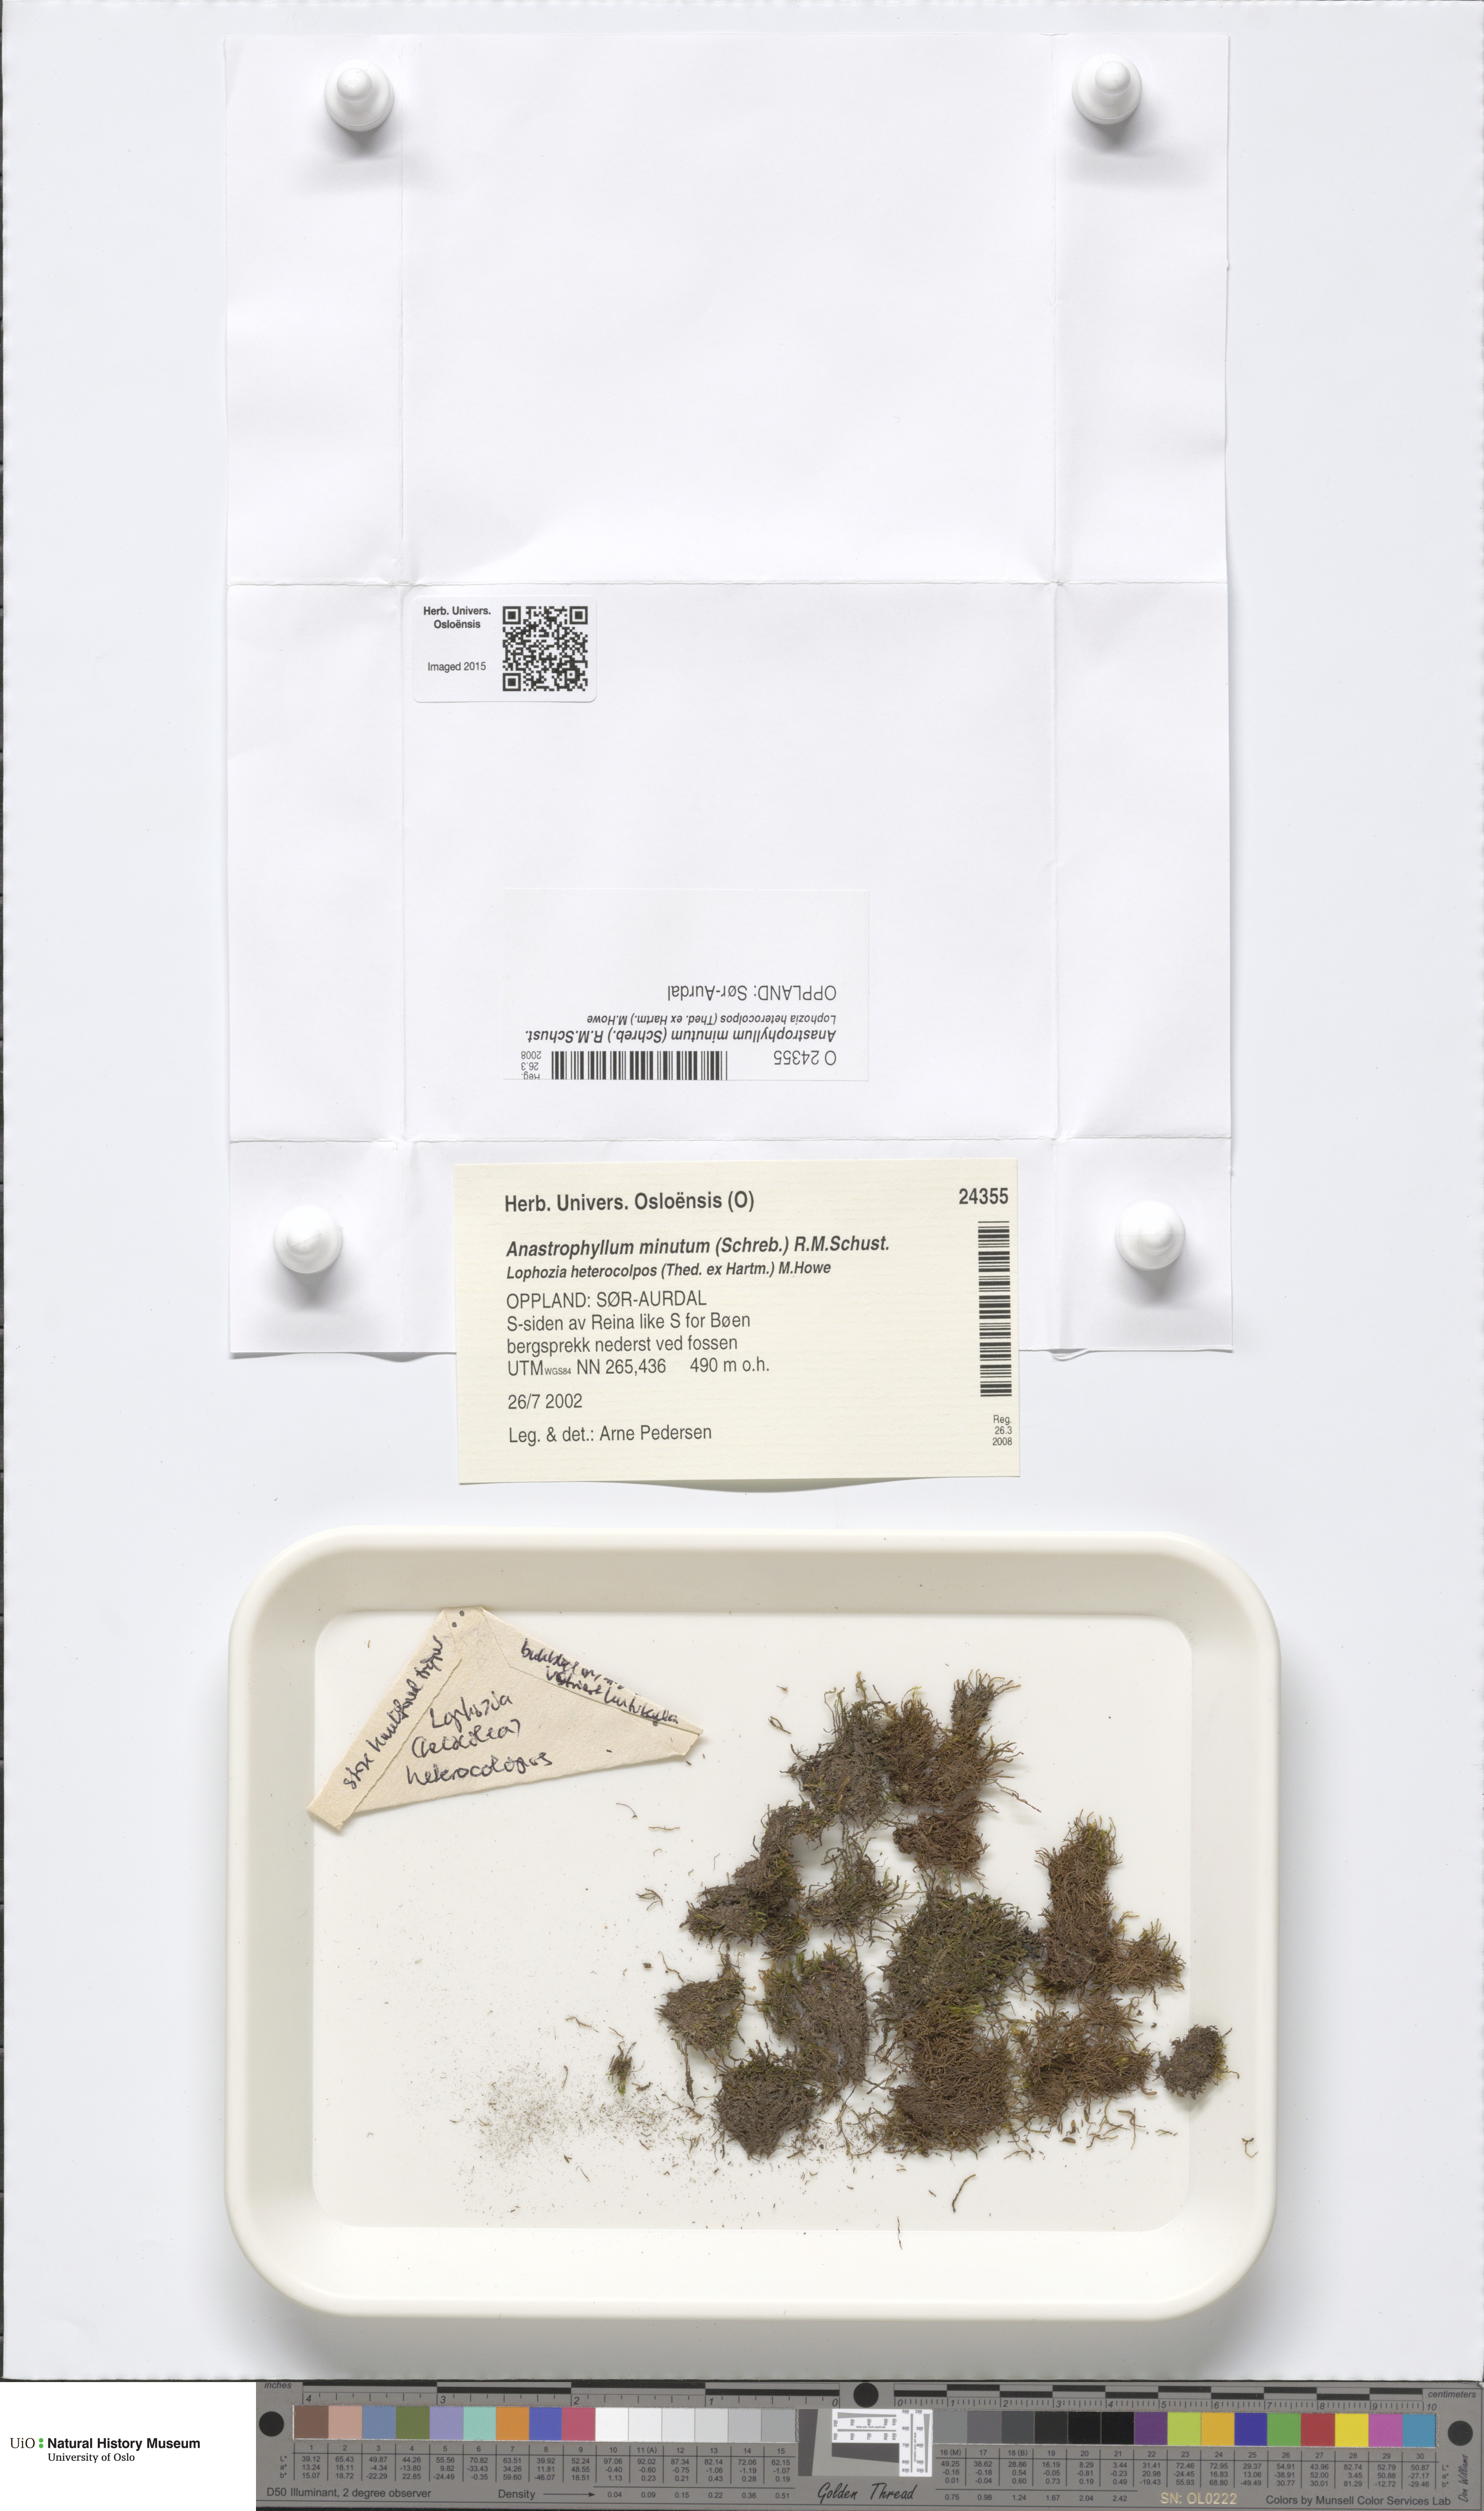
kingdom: Plantae
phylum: Marchantiophyta
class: Jungermanniopsida
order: Jungermanniales
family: Anastrophyllaceae
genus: Sphenolobus
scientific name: Sphenolobus minutus
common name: Comb notchwort
